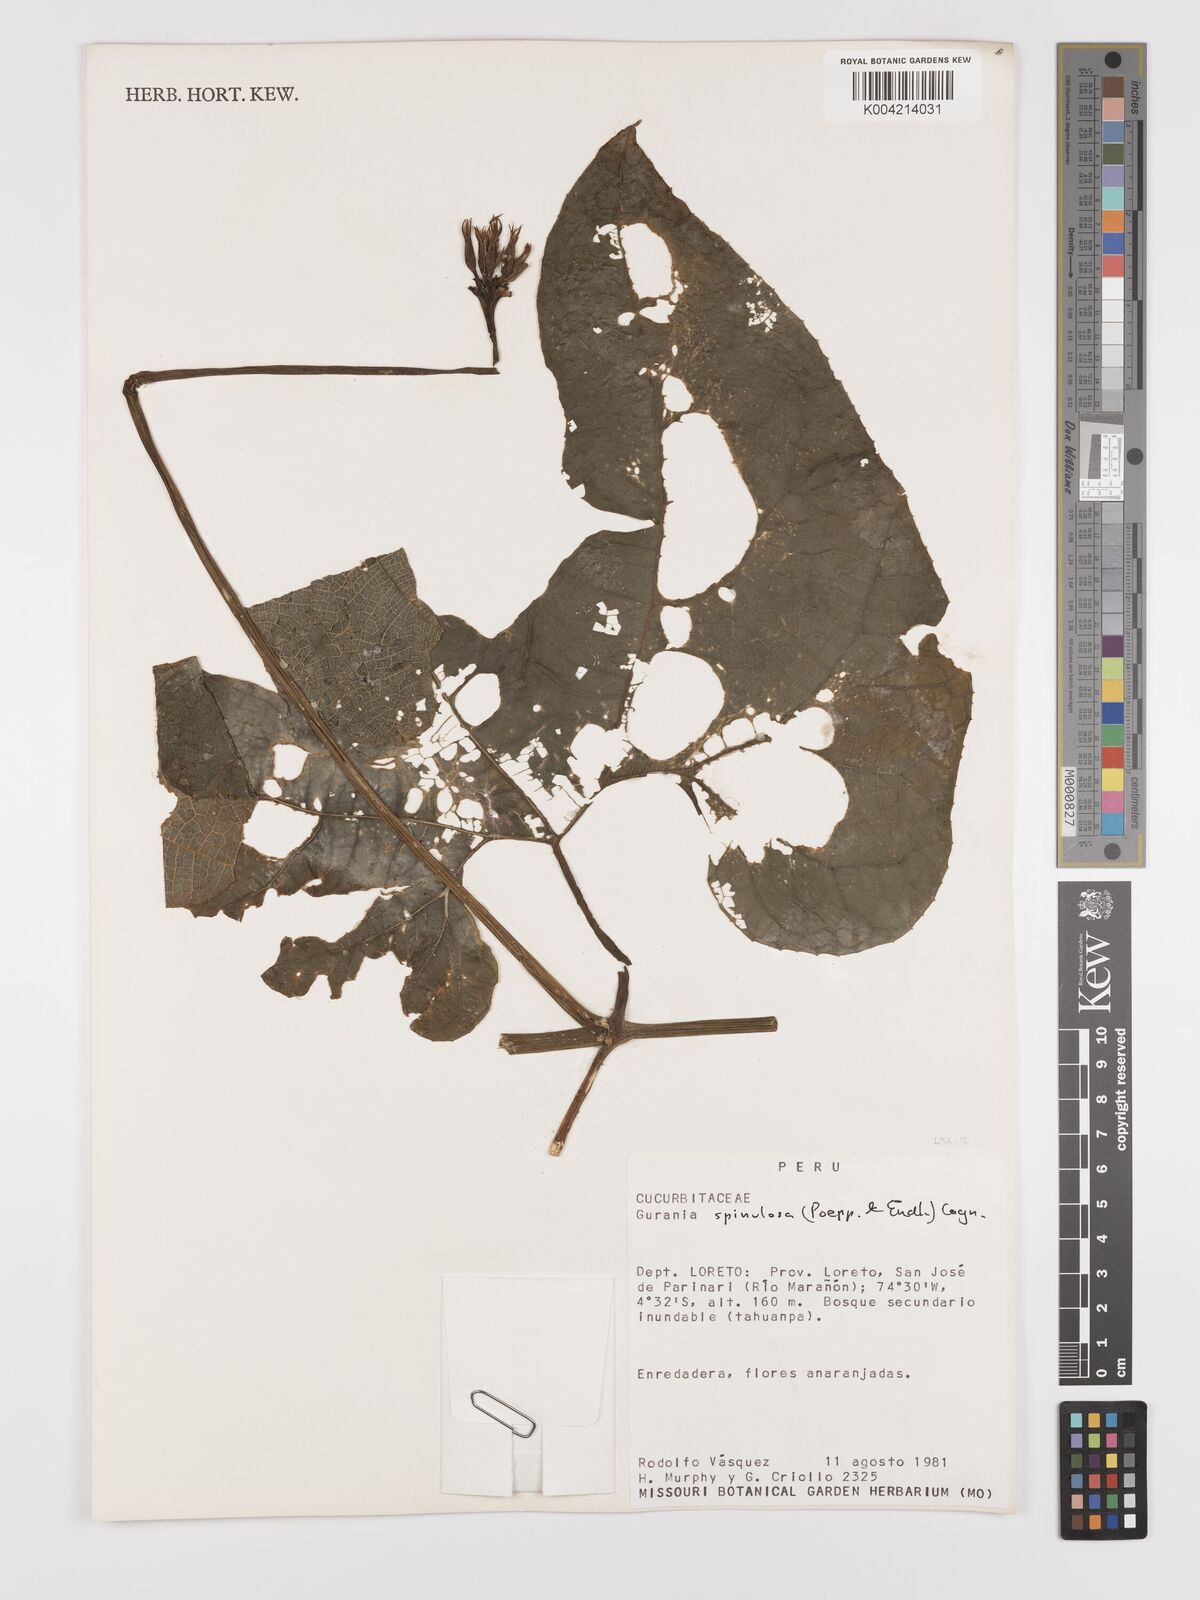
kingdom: Plantae
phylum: Tracheophyta
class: Magnoliopsida
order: Cucurbitales
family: Cucurbitaceae
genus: Gurania
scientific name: Gurania lobata
